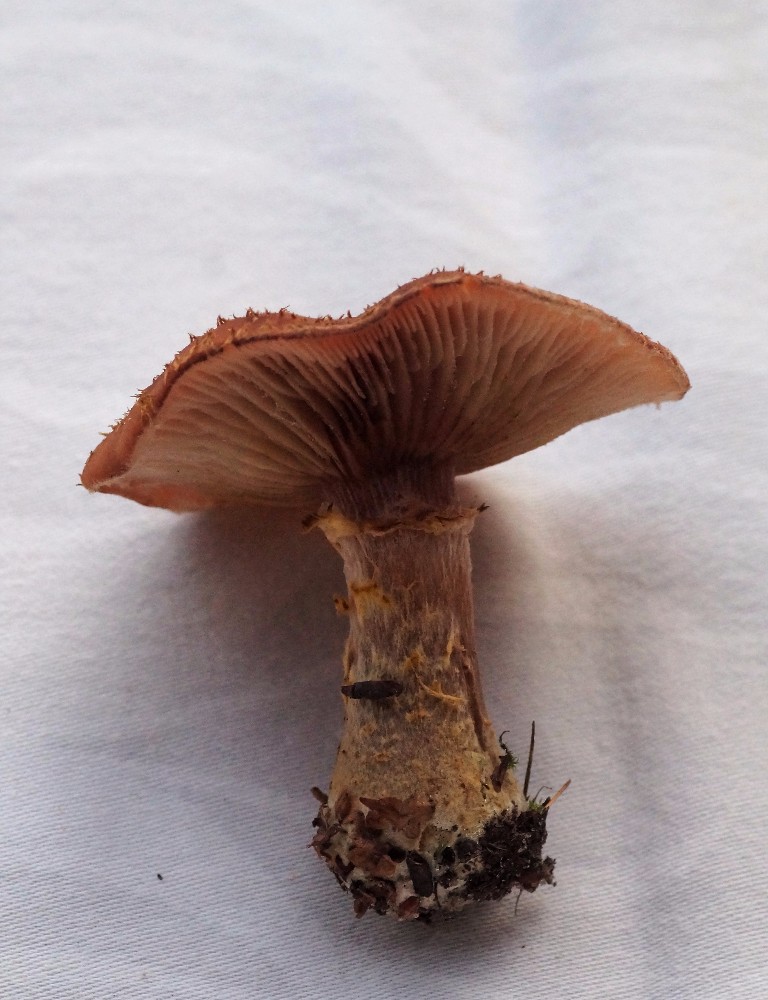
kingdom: Fungi
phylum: Basidiomycota
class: Agaricomycetes
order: Agaricales
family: Physalacriaceae
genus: Armillaria
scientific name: Armillaria lutea
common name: køllestokket honningsvamp
